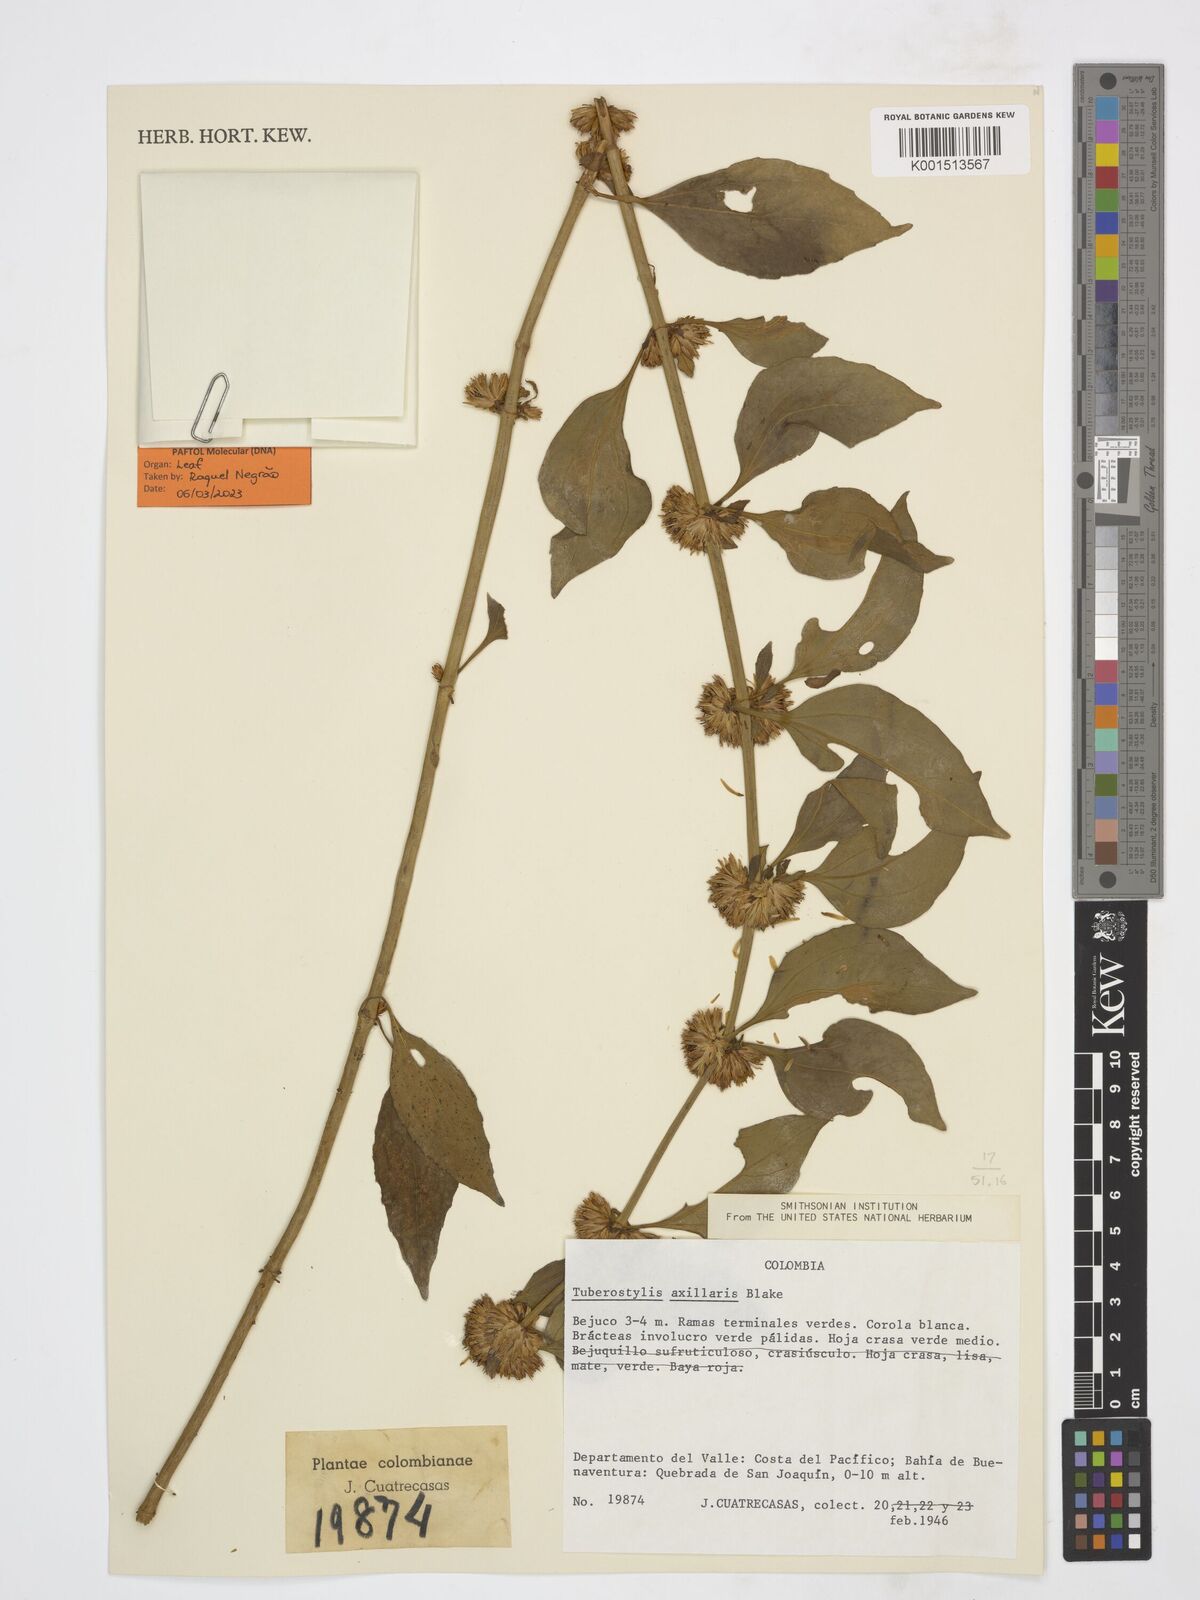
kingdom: Plantae
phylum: Tracheophyta
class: Magnoliopsida
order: Asterales
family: Asteraceae
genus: Tuberostylis
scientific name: Tuberostylis axillaris
